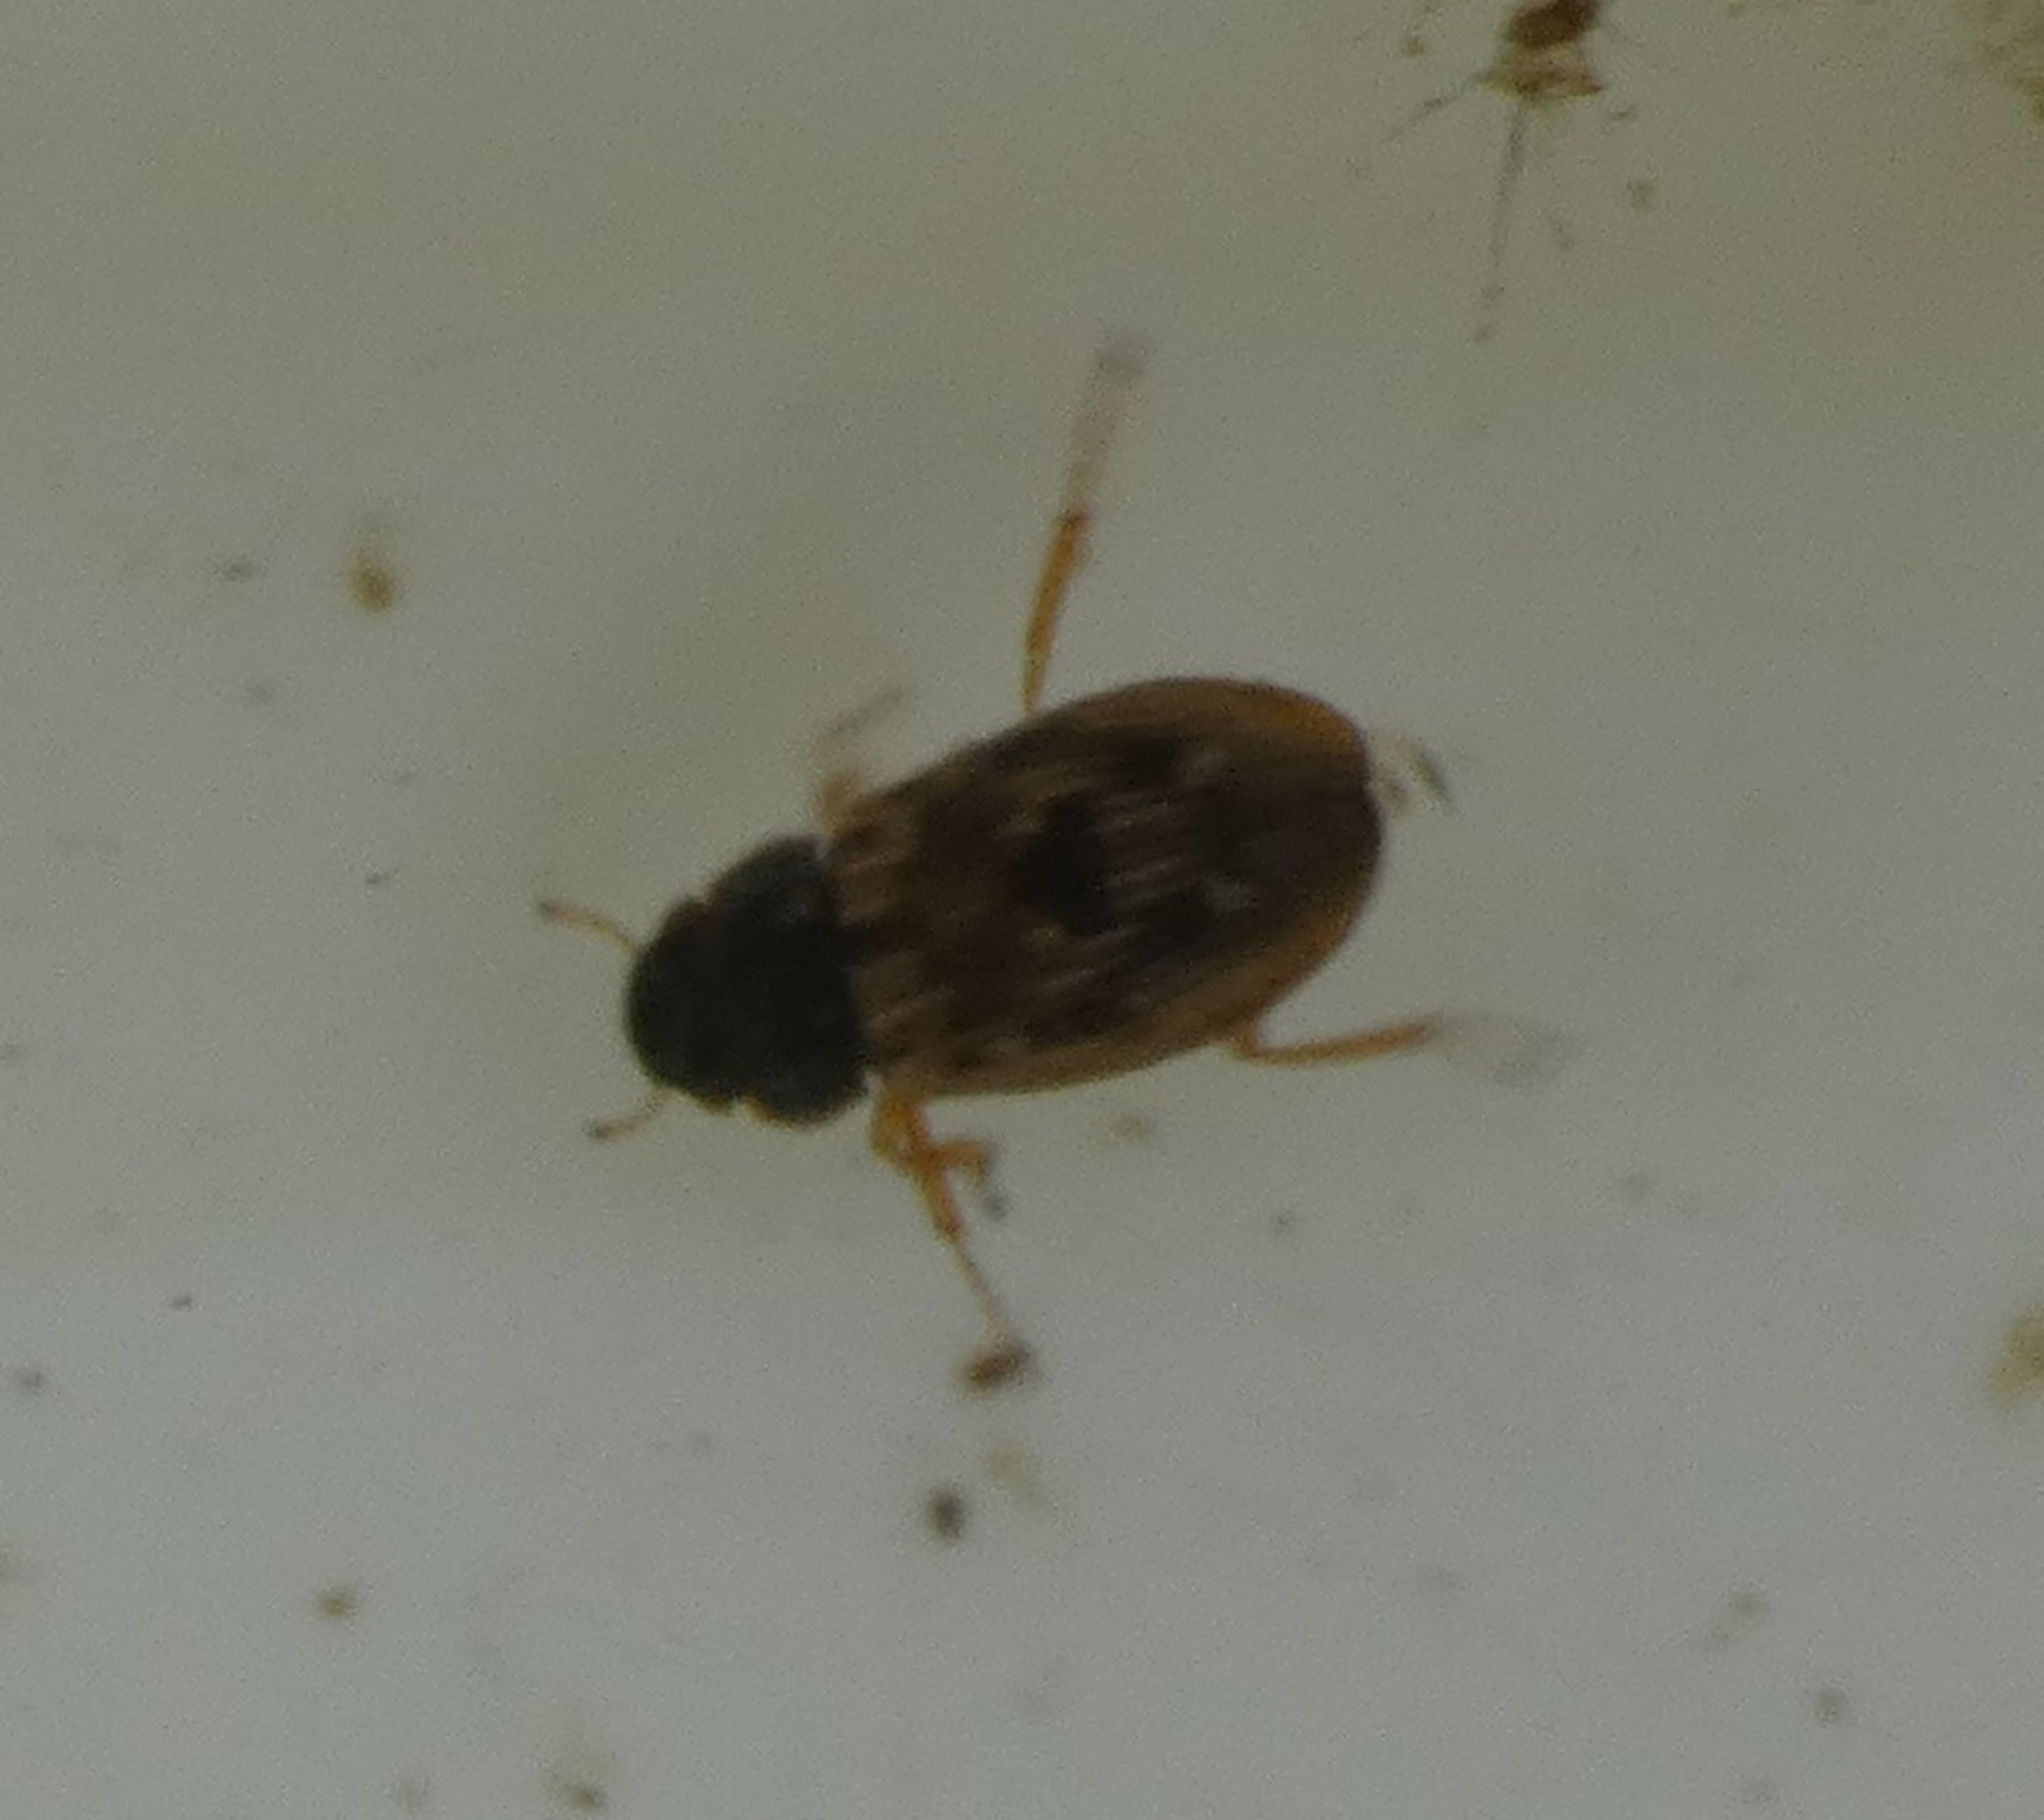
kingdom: Animalia
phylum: Arthropoda
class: Insecta
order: Coleoptera
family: Helophoridae
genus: Helophorus
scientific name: Helophorus
